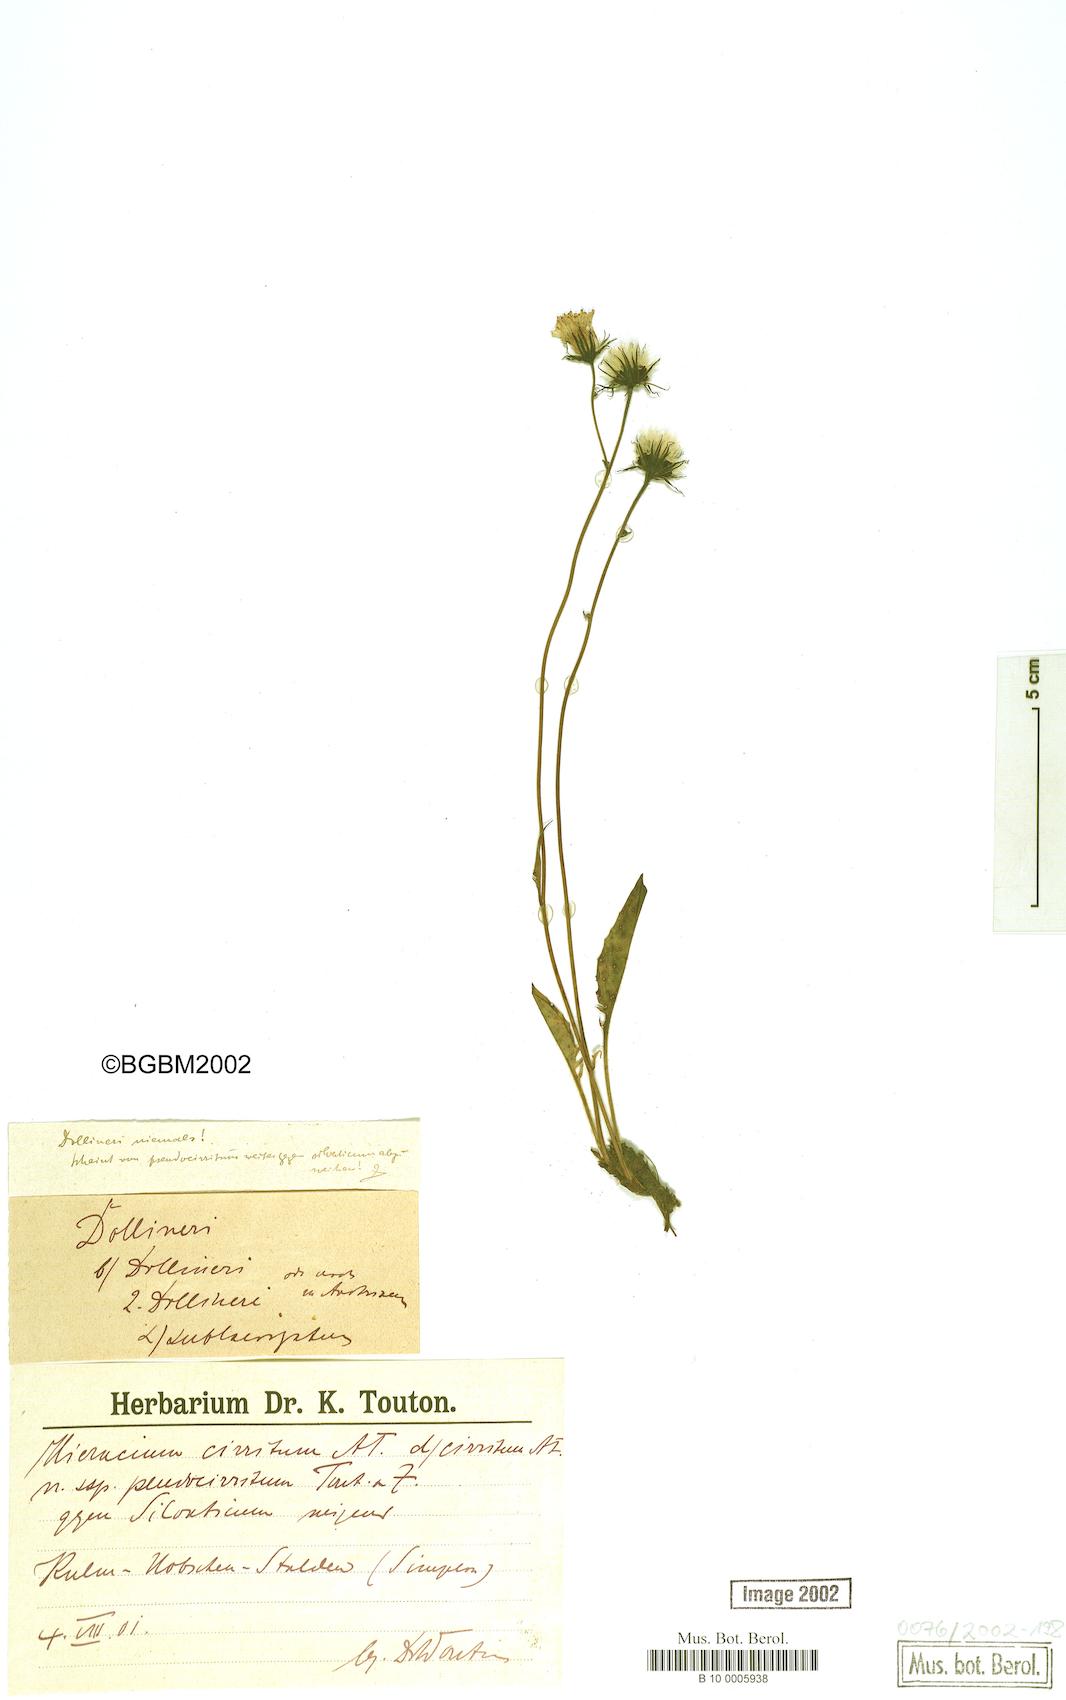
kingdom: Plantae
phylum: Tracheophyta
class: Magnoliopsida
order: Asterales
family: Asteraceae
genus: Hieracium
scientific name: Hieracium cirritum
